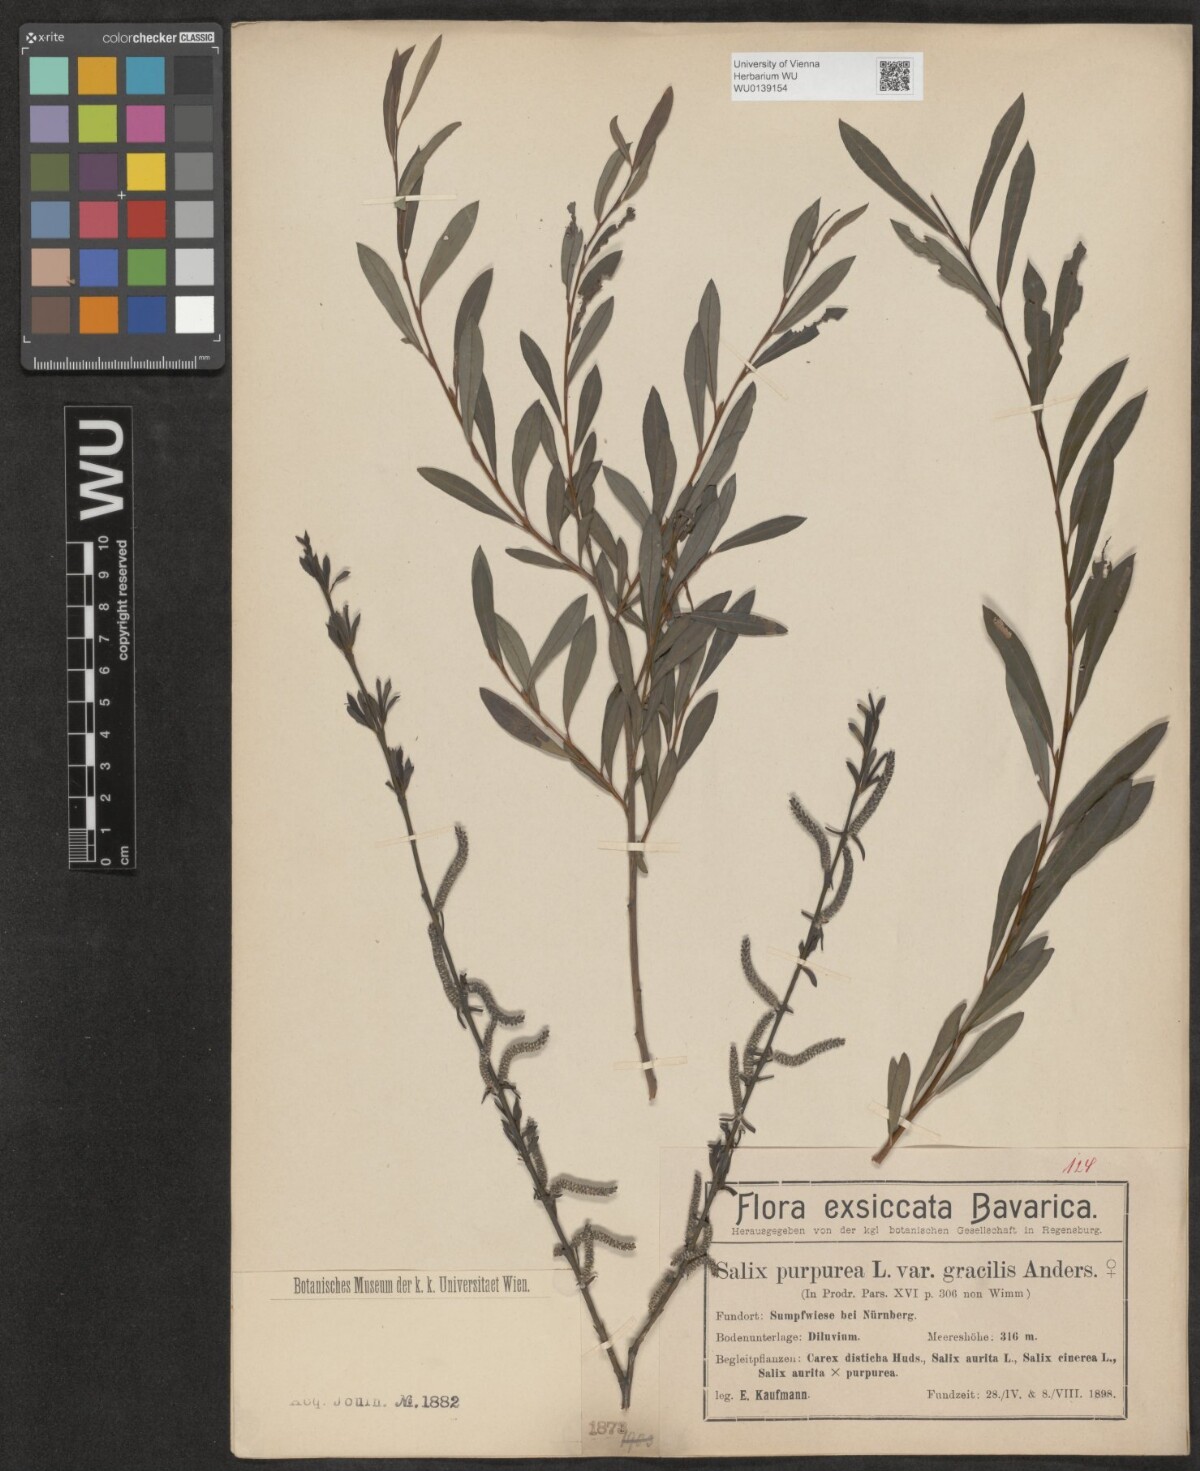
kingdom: Plantae
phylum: Tracheophyta
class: Magnoliopsida
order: Malpighiales
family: Salicaceae
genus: Salix
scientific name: Salix purpurea
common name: Purple willow
